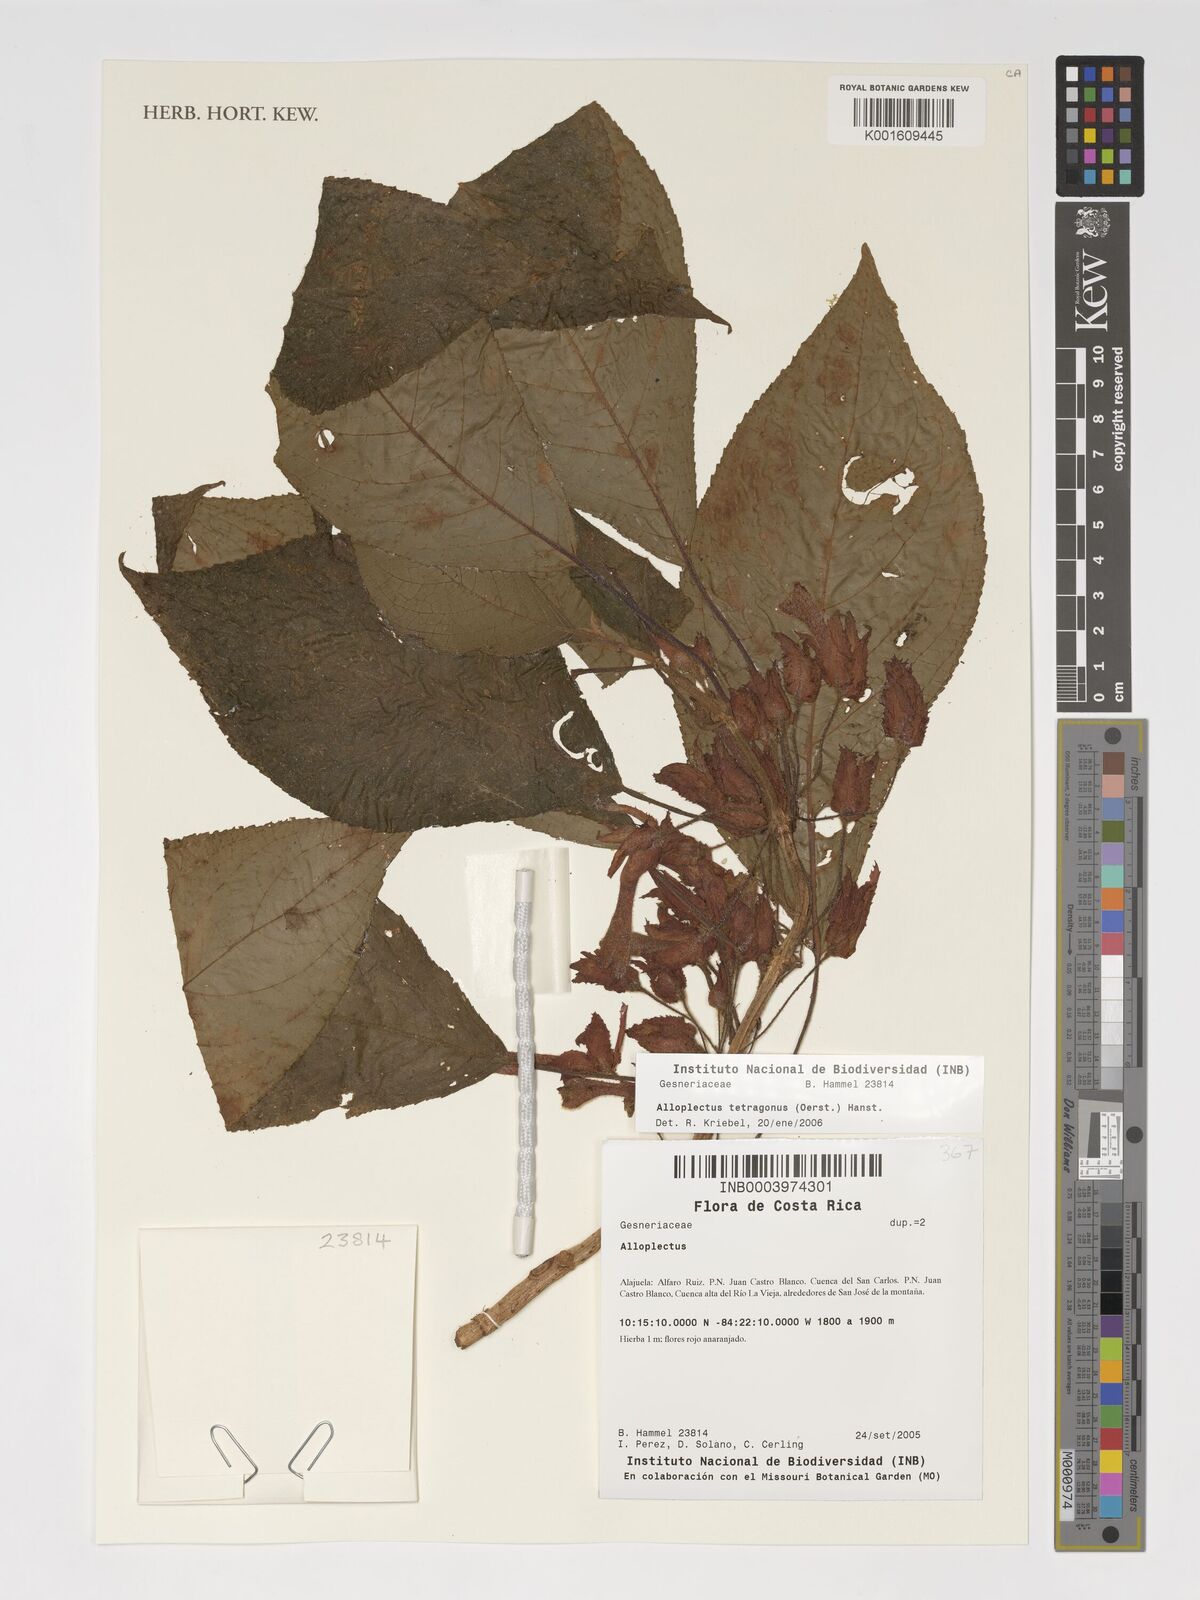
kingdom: Plantae
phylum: Tracheophyta
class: Magnoliopsida
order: Lamiales
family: Gesneriaceae
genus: Glossoloma
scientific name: Glossoloma tetragonum
